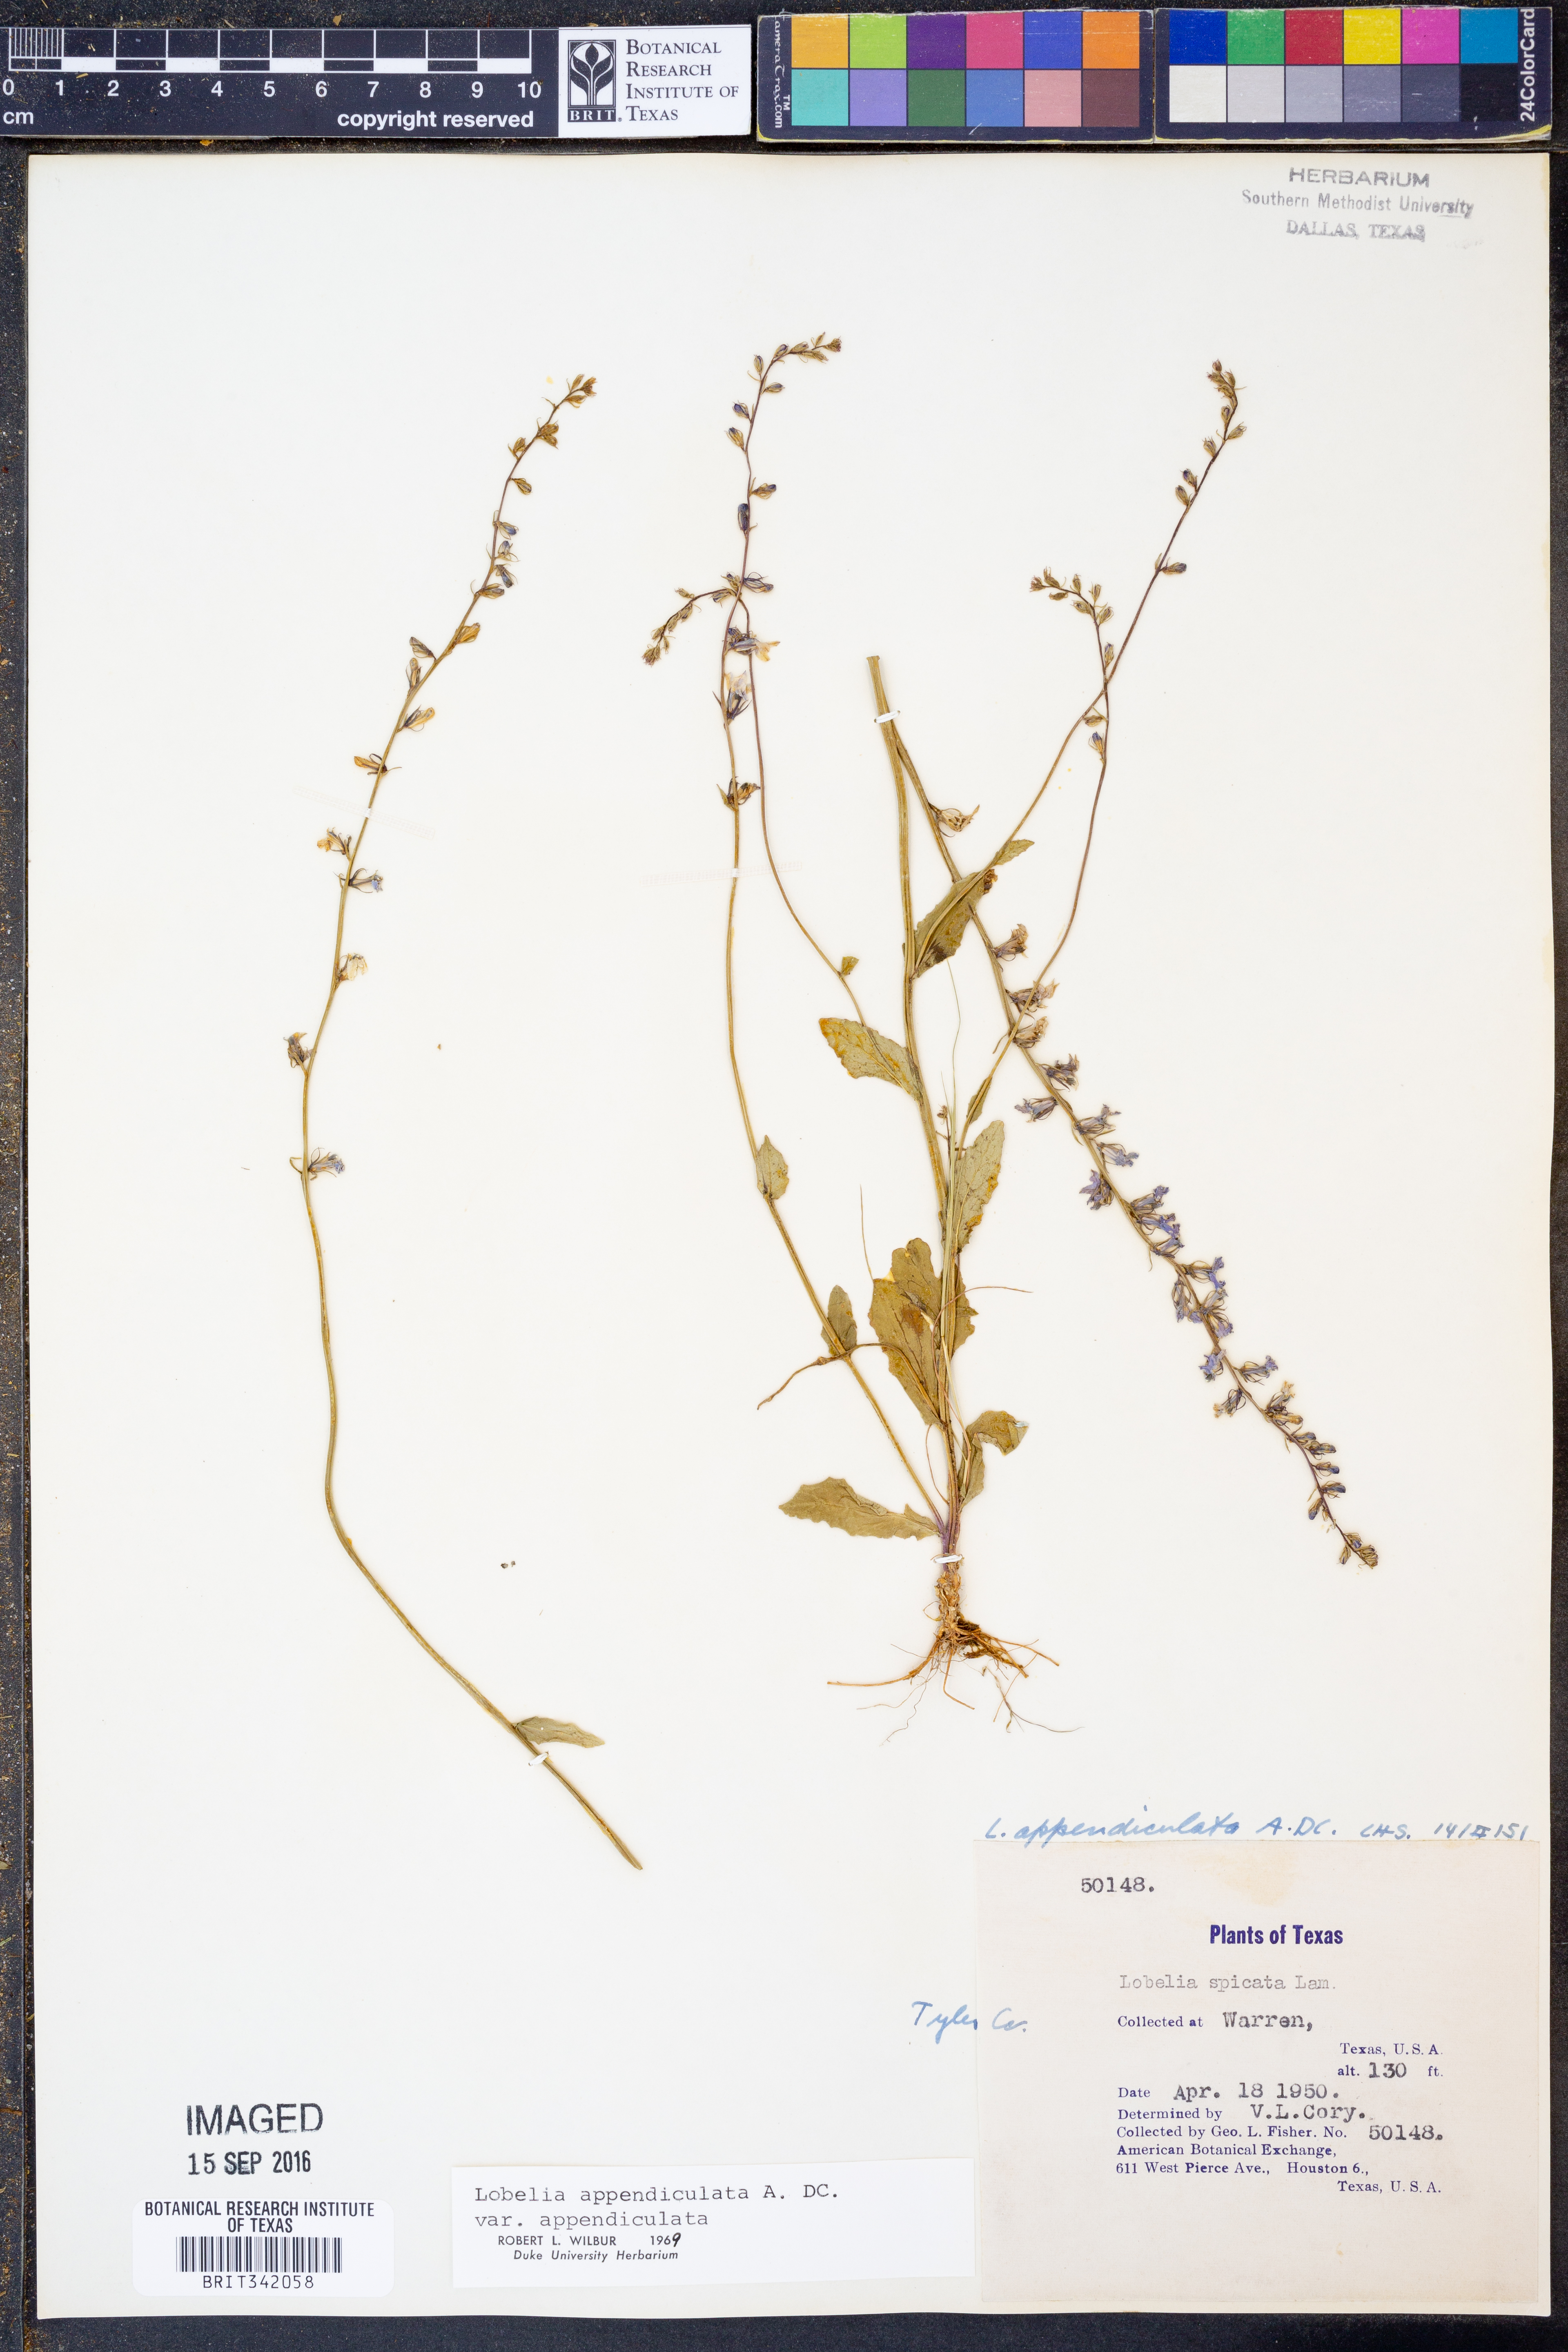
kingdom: Plantae
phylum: Tracheophyta
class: Magnoliopsida
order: Asterales
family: Campanulaceae
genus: Lobelia
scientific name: Lobelia appendiculata
